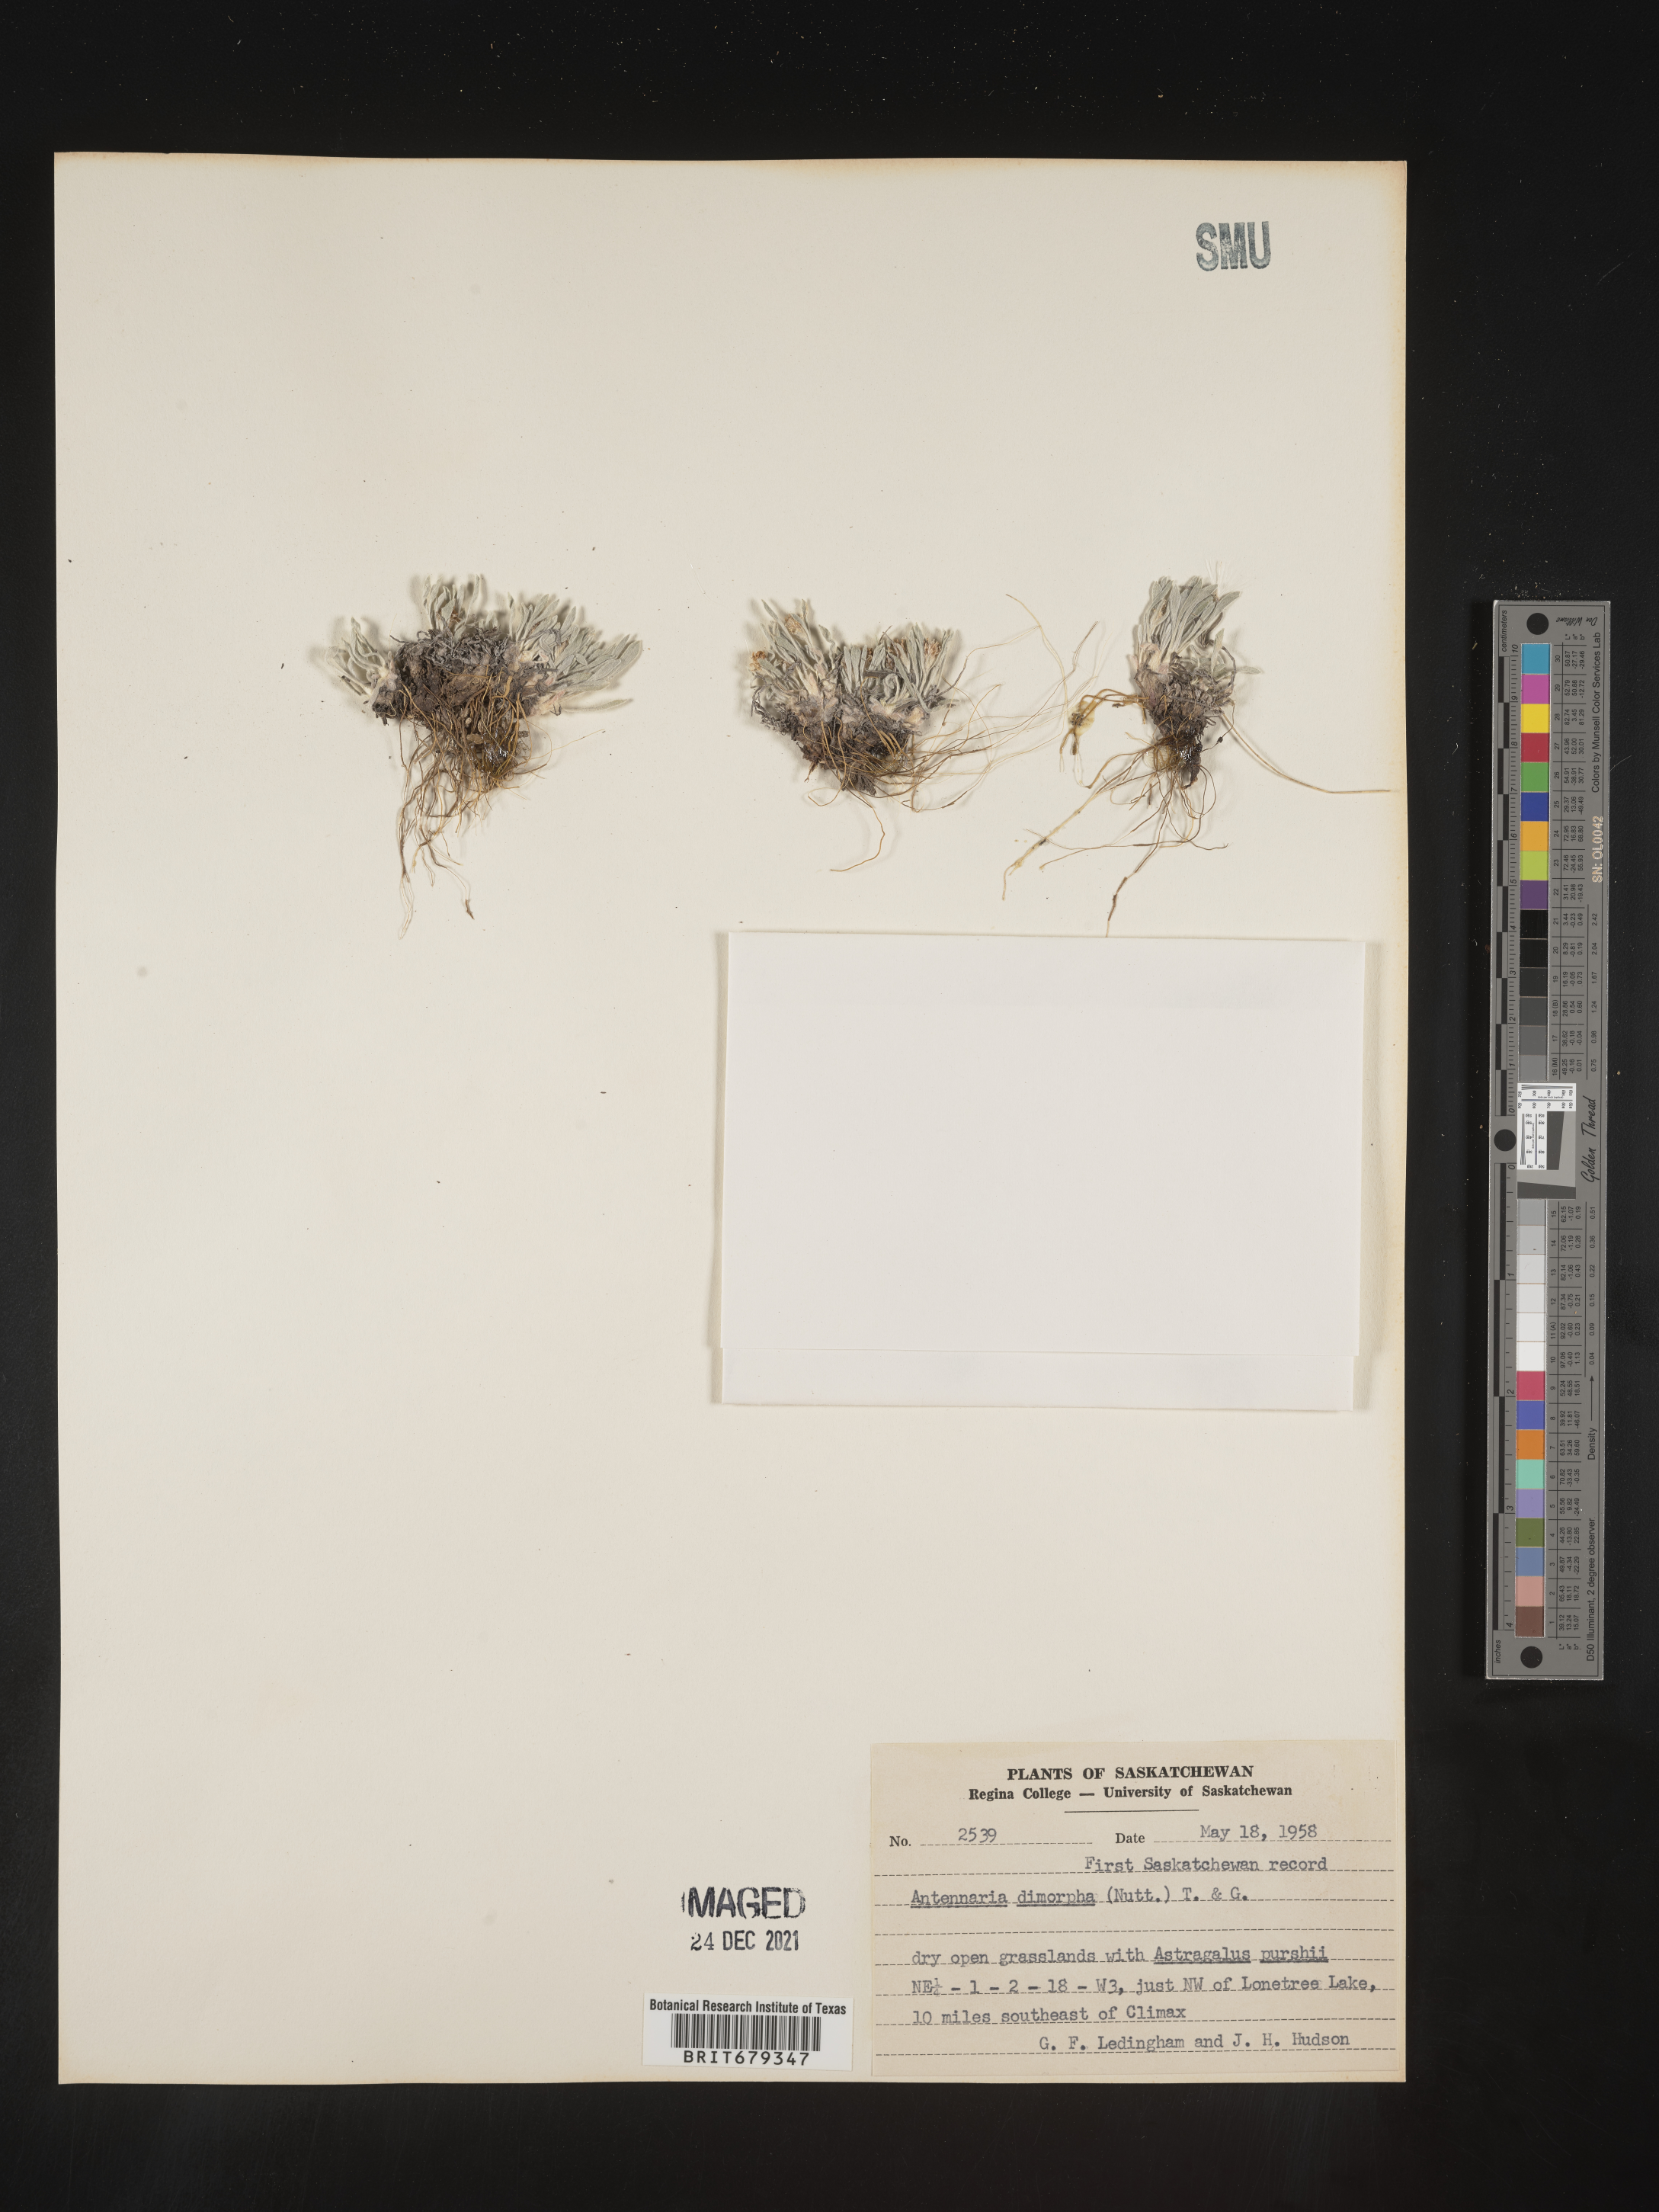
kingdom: Plantae
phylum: Tracheophyta
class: Magnoliopsida
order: Asterales
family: Asteraceae
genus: Antennaria
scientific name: Antennaria dimorpha
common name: Cushion pussytoes
